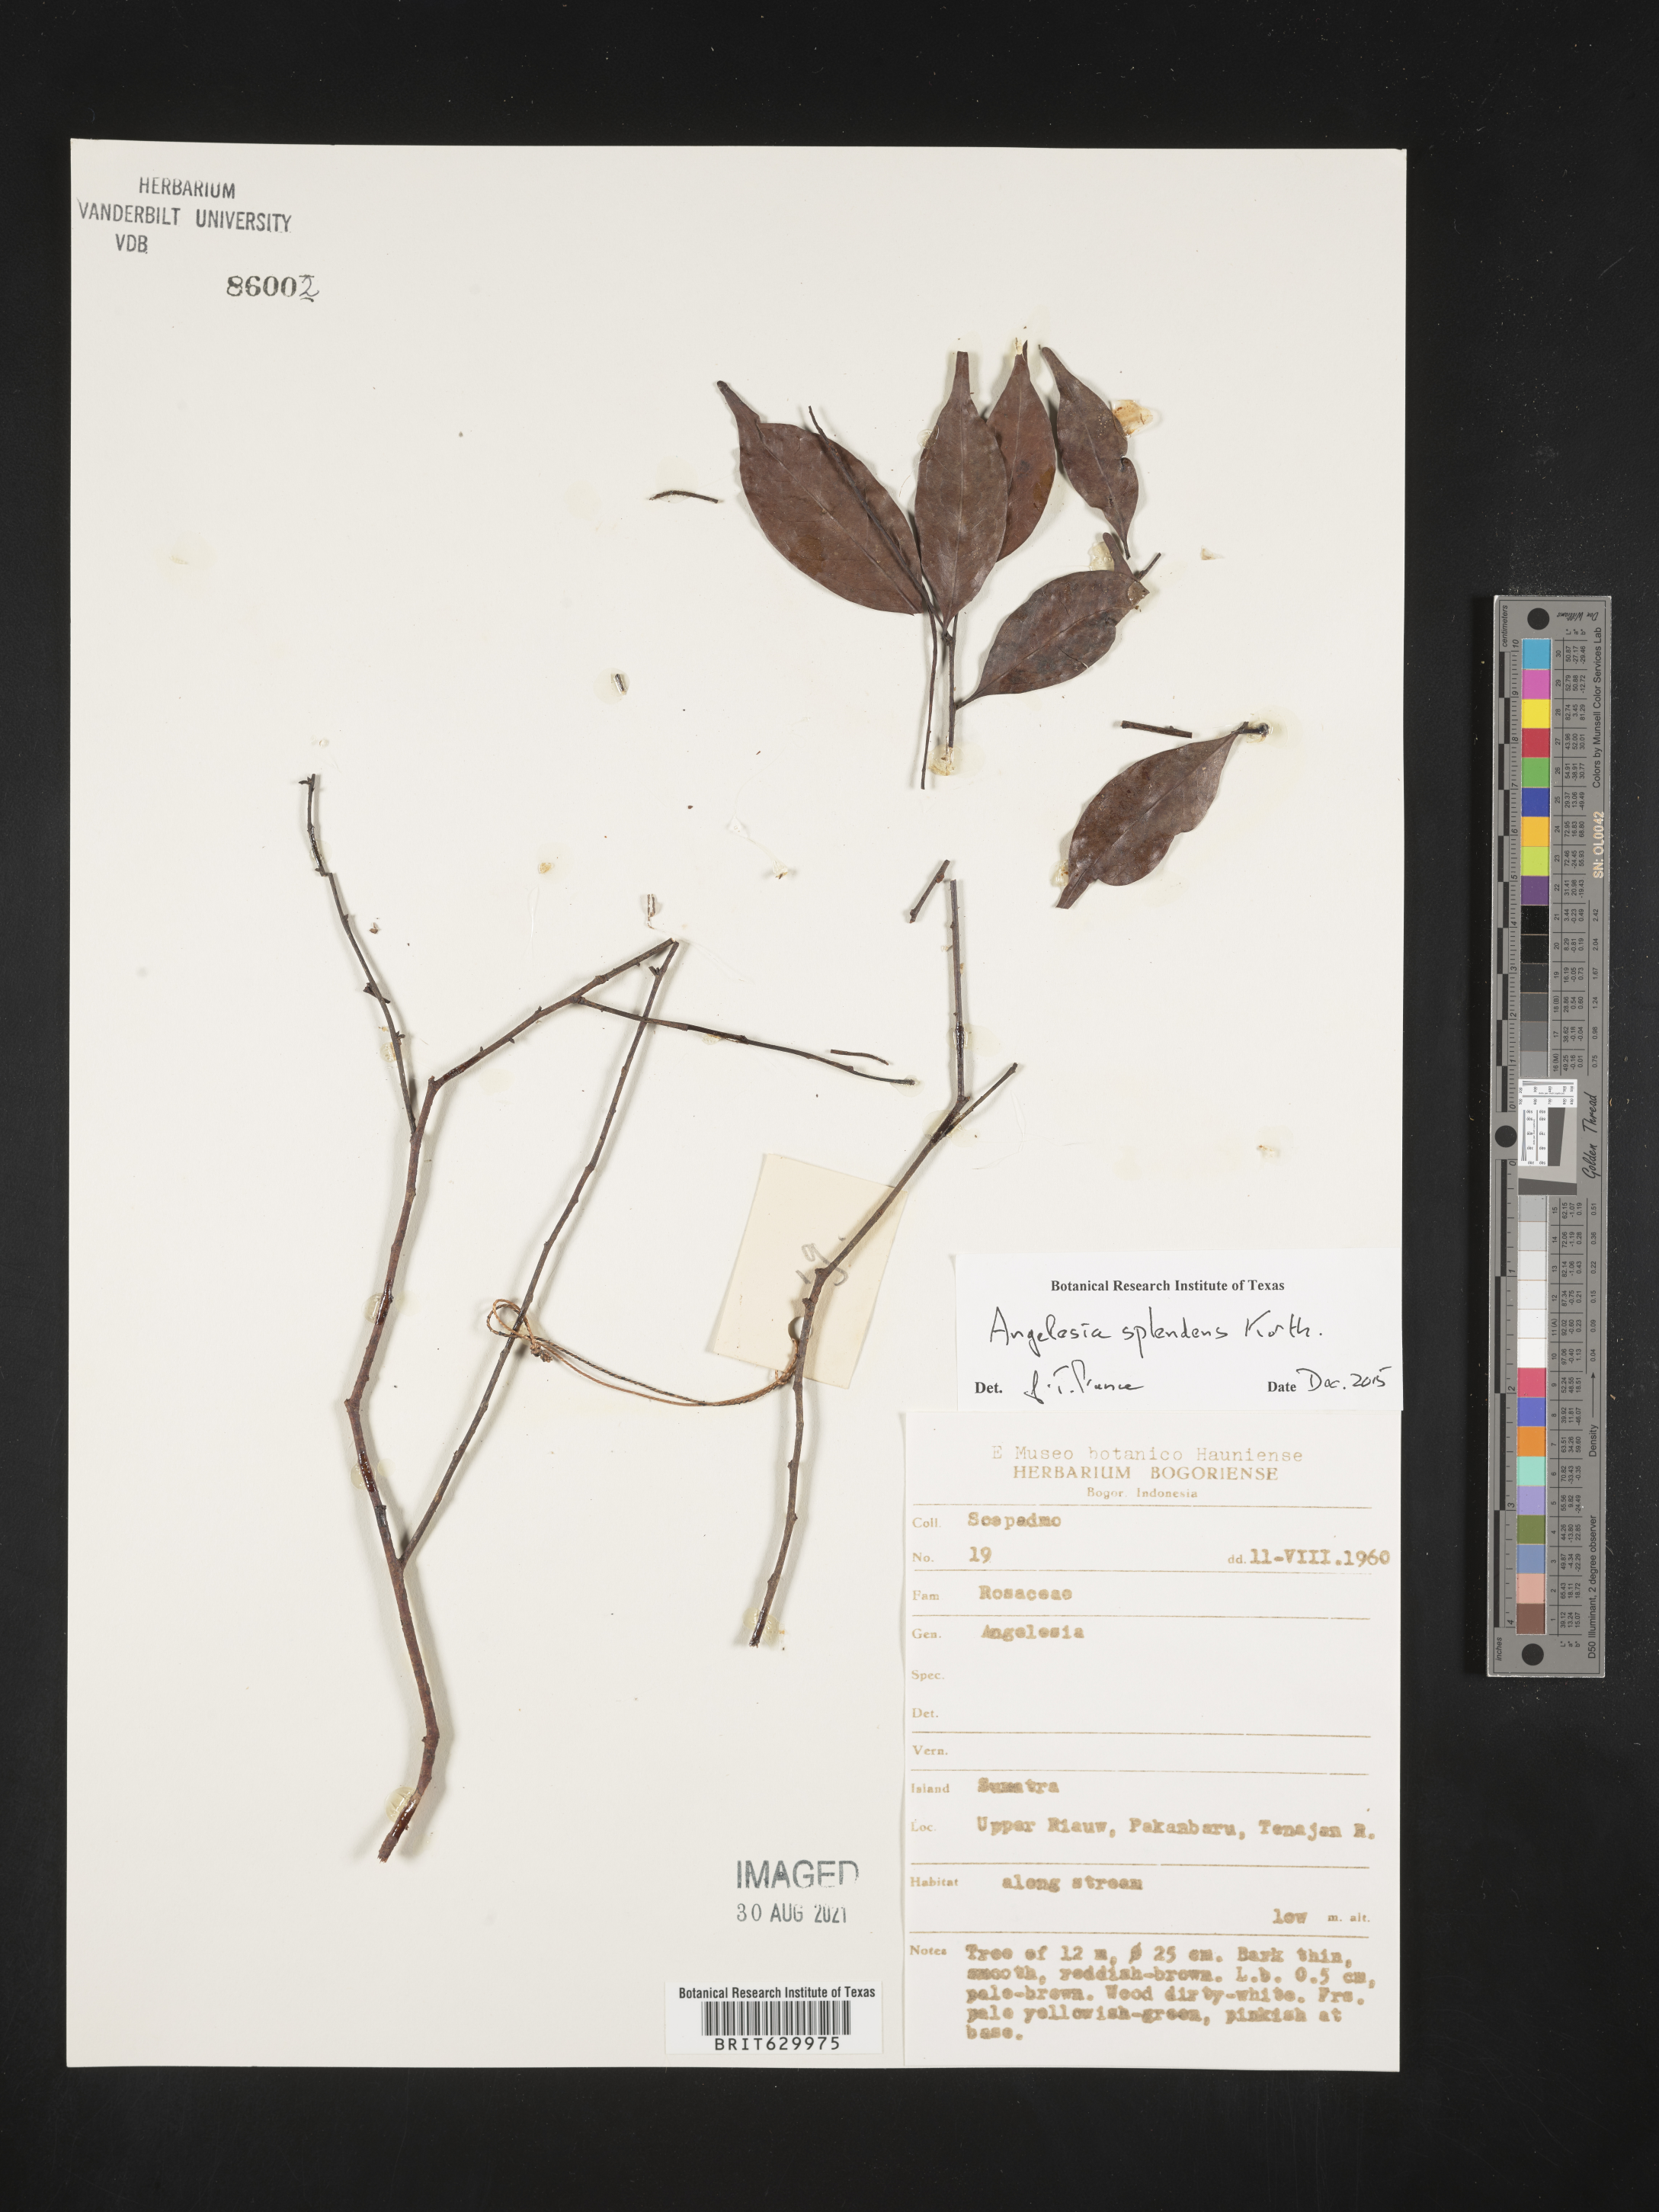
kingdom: Plantae
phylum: Tracheophyta
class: Magnoliopsida
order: Malpighiales
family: Chrysobalanaceae
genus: Angelesia
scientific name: Angelesia splendens
